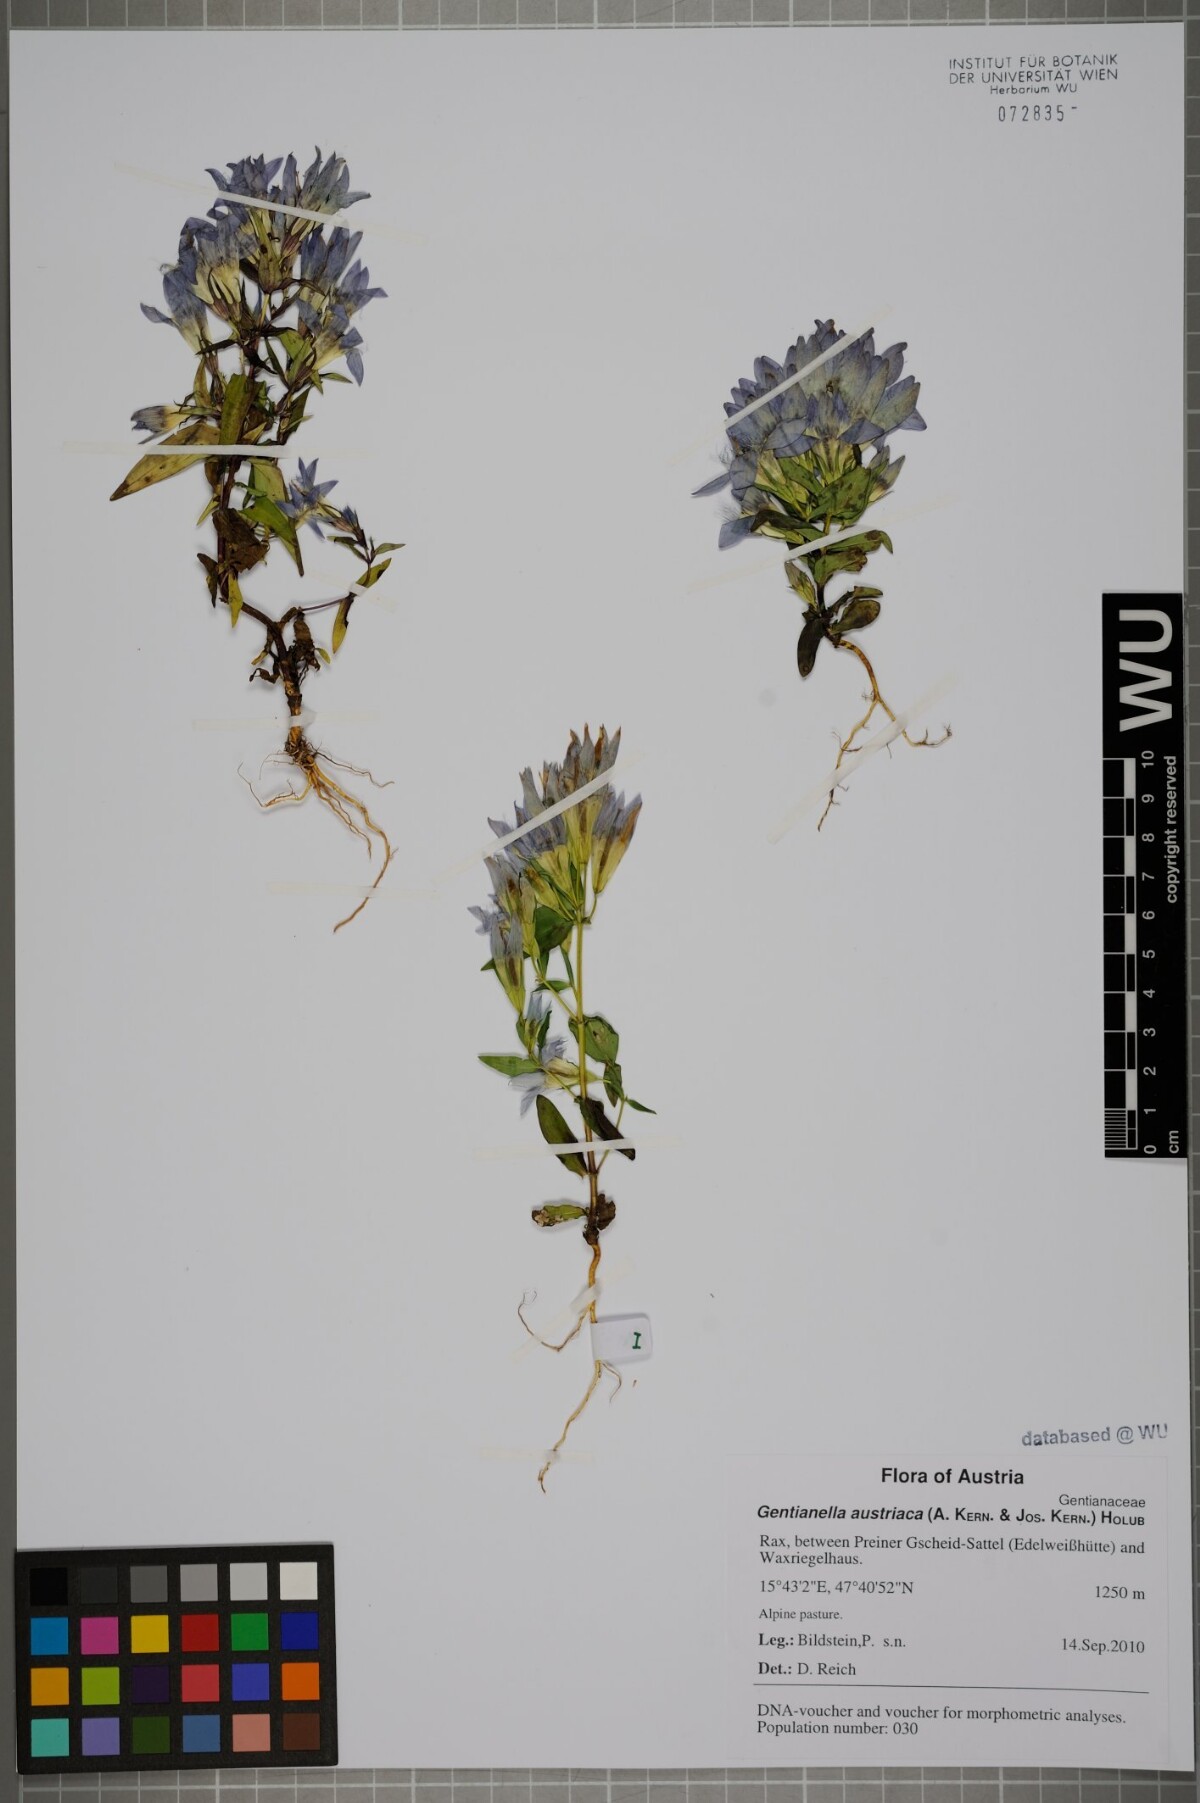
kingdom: Plantae
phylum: Tracheophyta
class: Magnoliopsida
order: Gentianales
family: Gentianaceae
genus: Gentianella
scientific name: Gentianella austriaca
